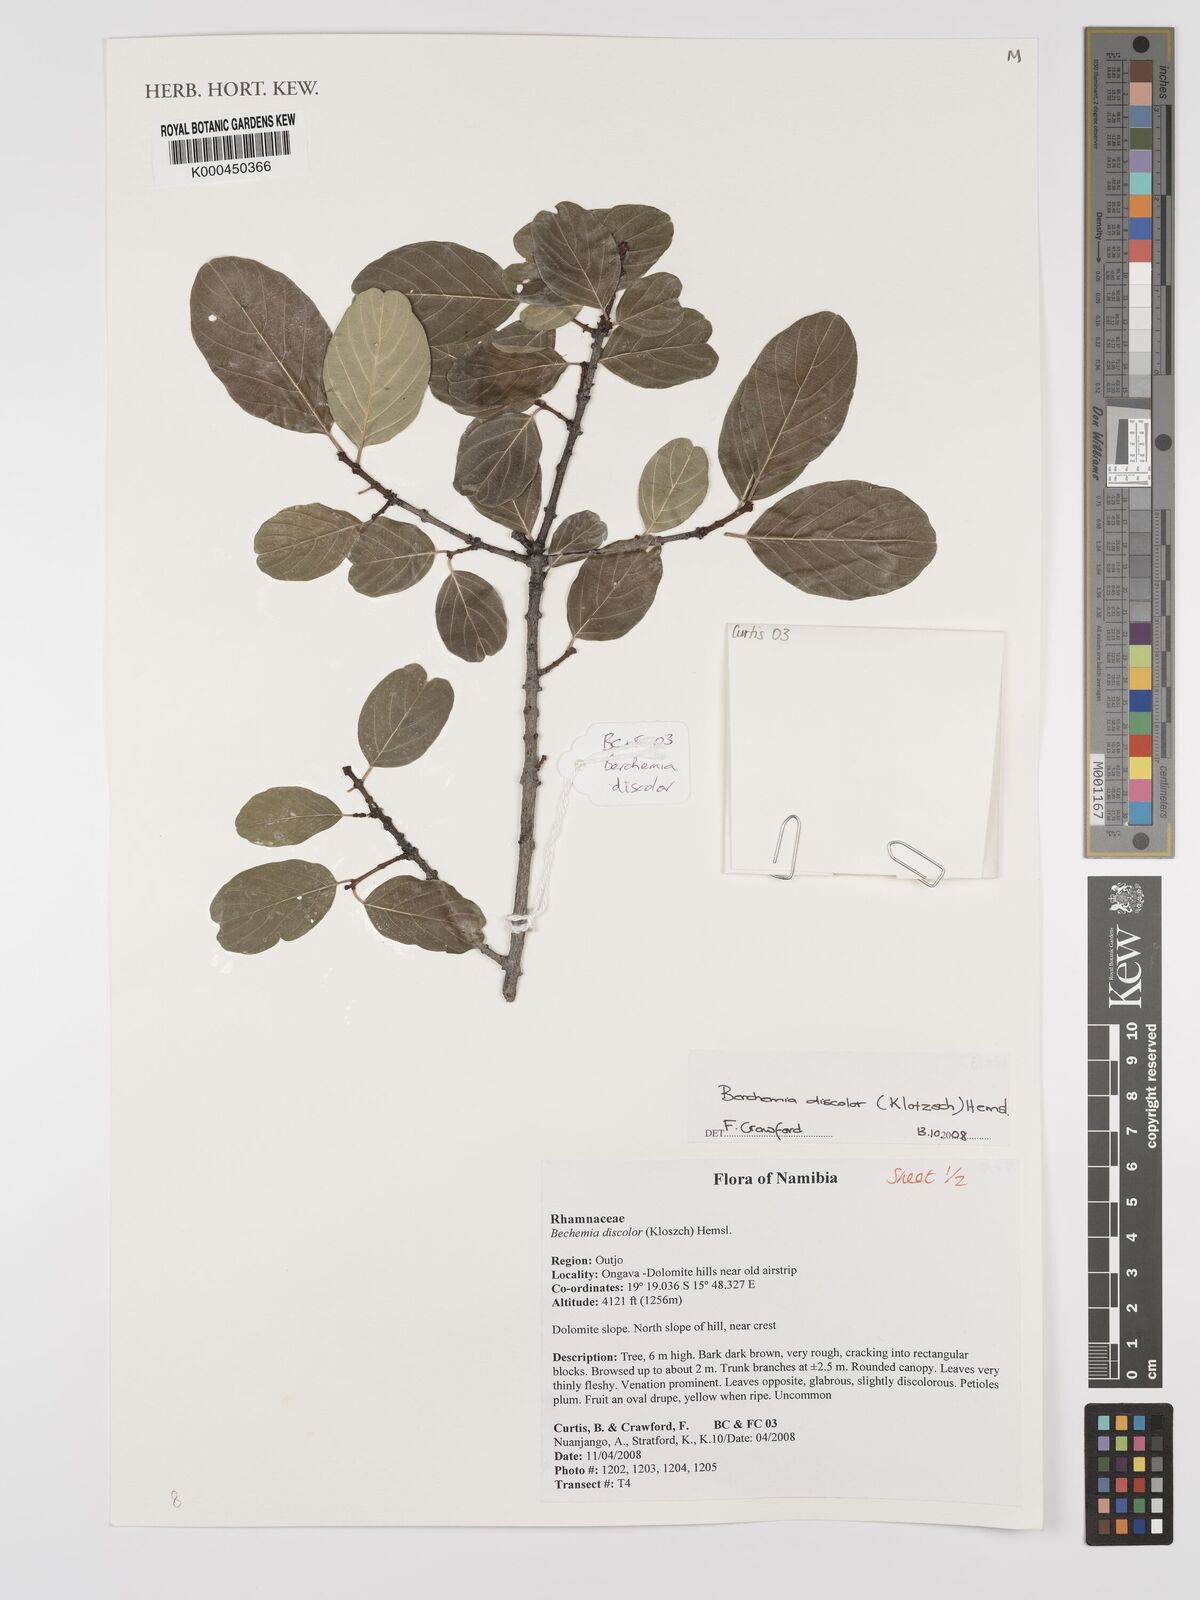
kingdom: Plantae
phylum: Tracheophyta
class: Magnoliopsida
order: Rosales
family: Rhamnaceae
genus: Phyllogeiton
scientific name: Phyllogeiton discolor
